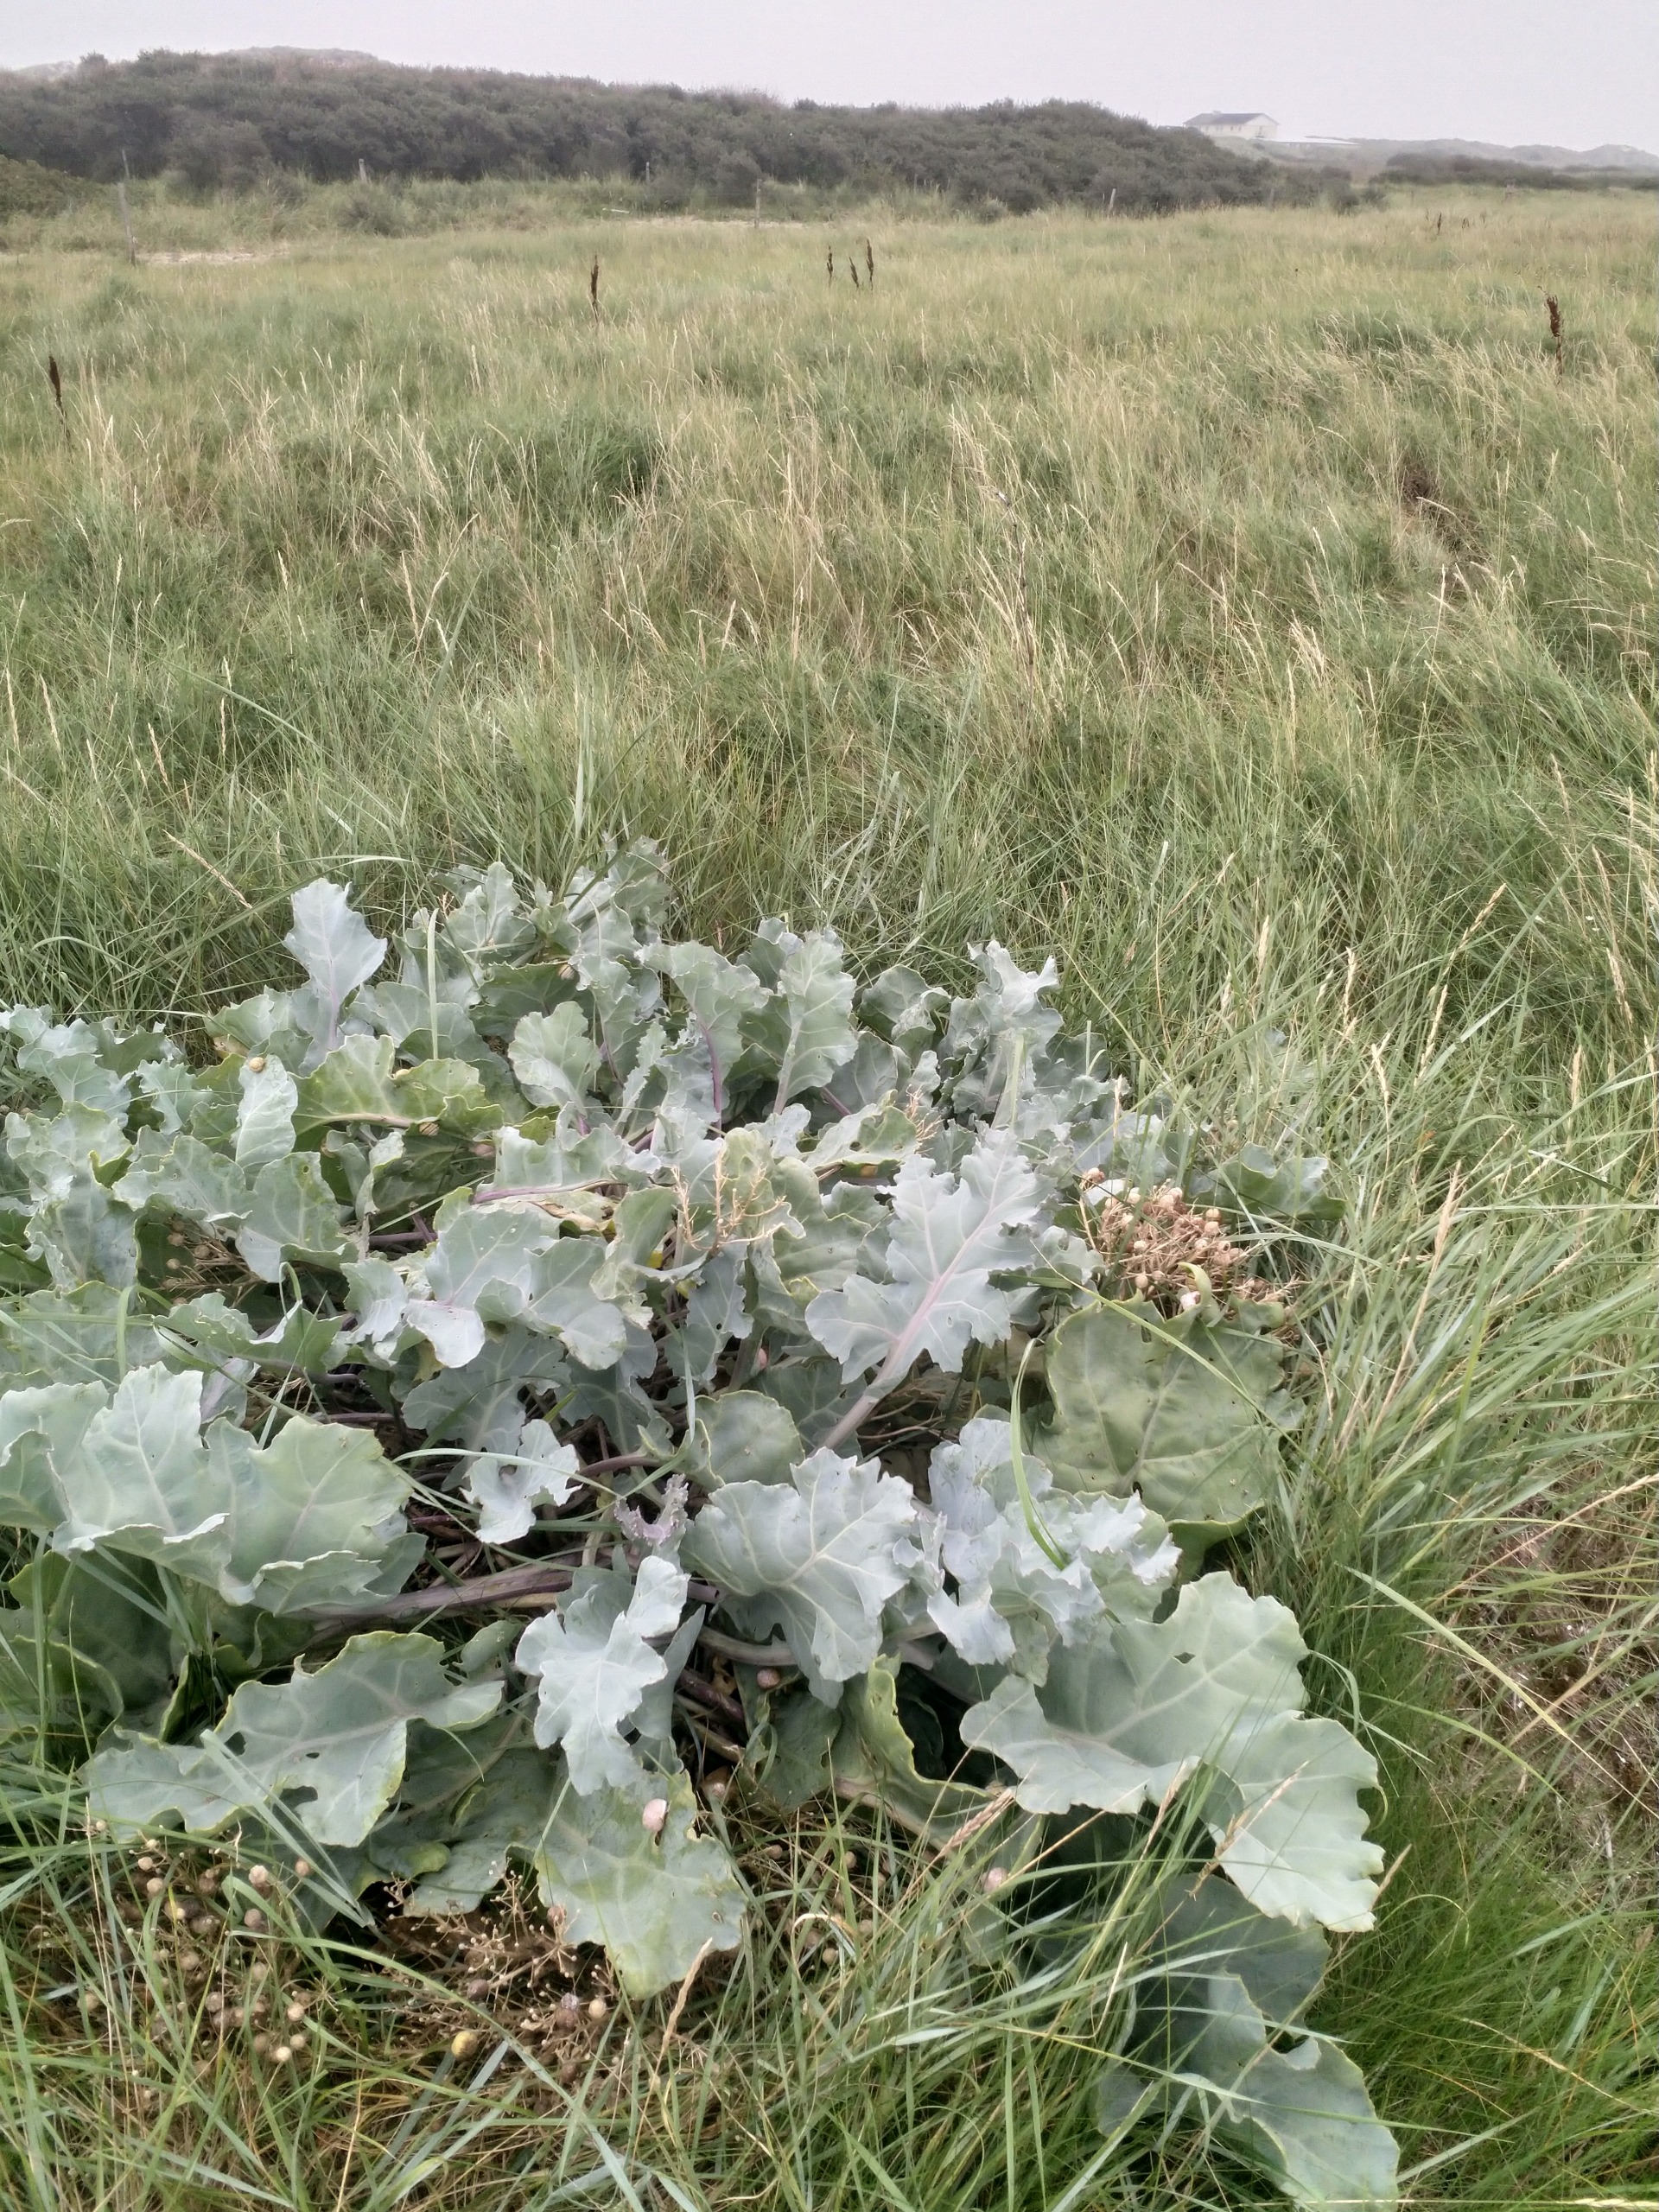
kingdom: Plantae
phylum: Tracheophyta
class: Magnoliopsida
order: Brassicales
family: Brassicaceae
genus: Crambe
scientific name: Crambe maritima
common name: Strandkål
